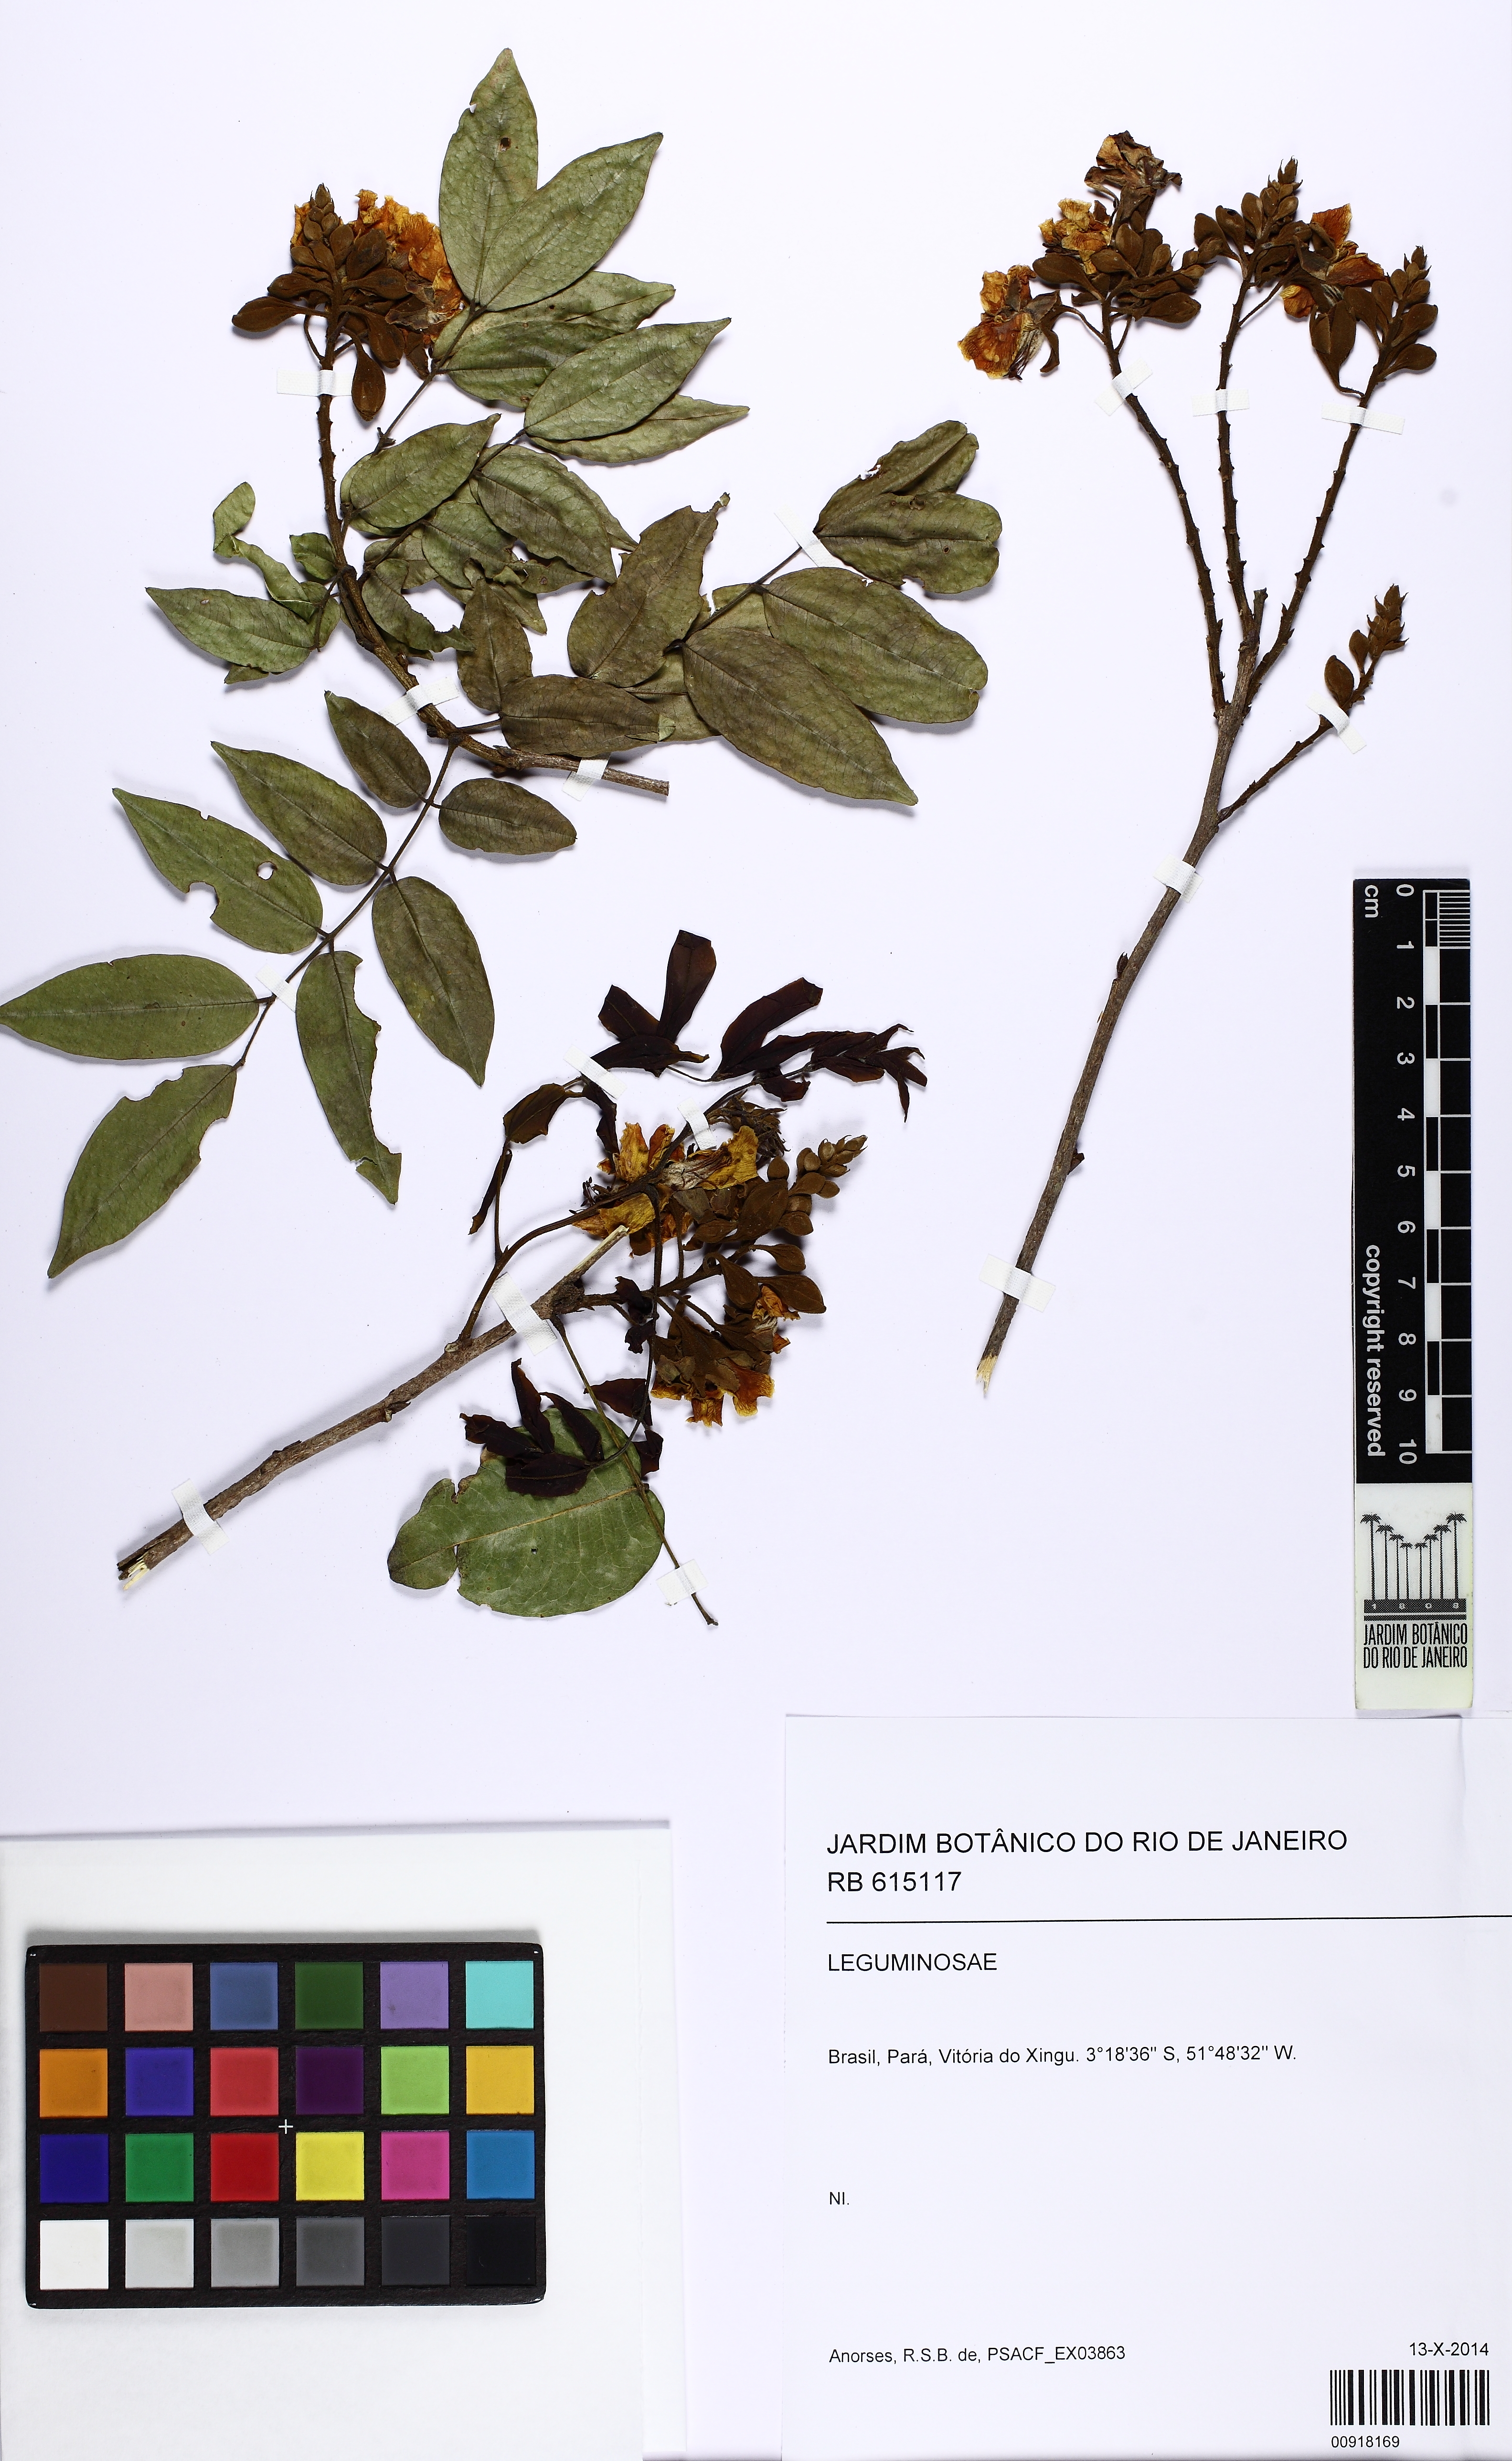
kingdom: Plantae
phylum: Tracheophyta
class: Magnoliopsida
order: Fabales
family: Fabaceae
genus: Cenostigma
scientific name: Cenostigma tocantinum
